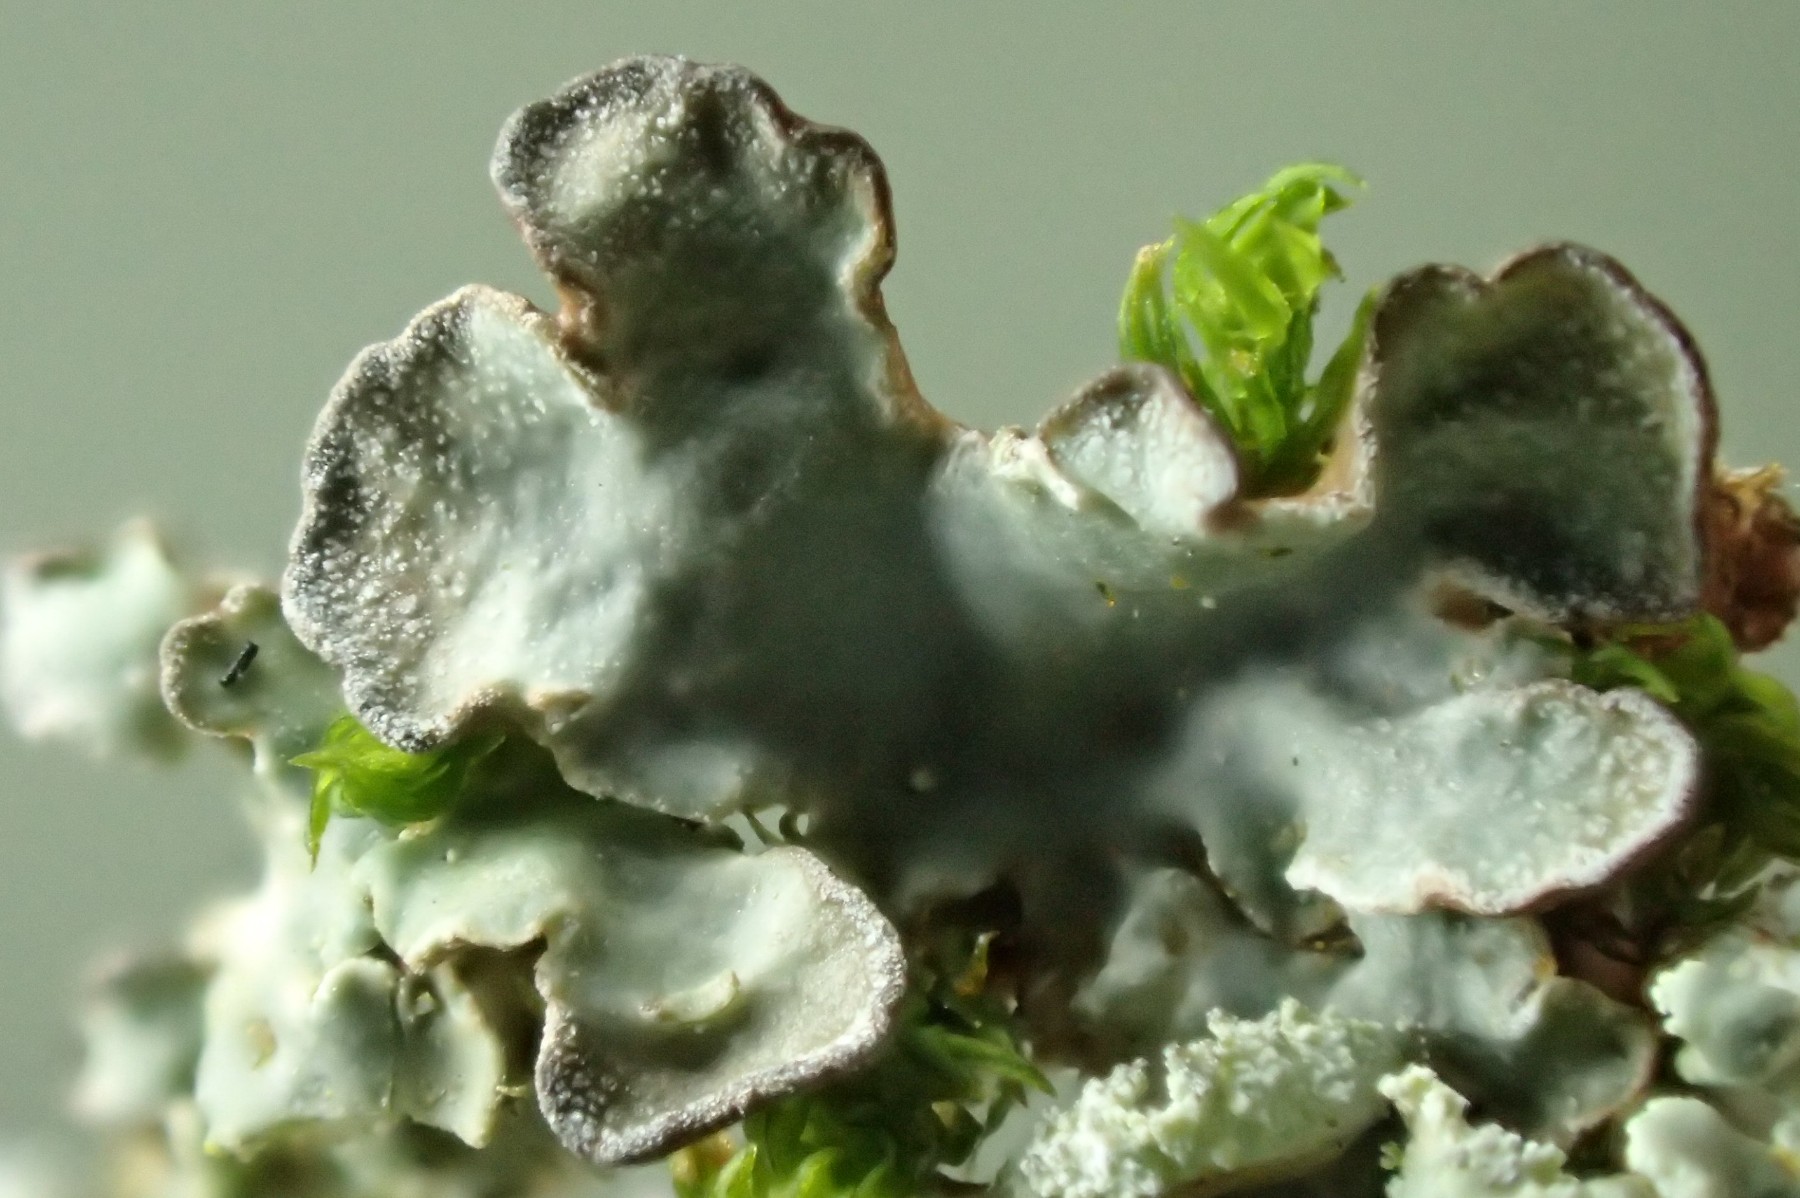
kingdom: Fungi
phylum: Ascomycota
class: Lecanoromycetes
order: Lecanorales
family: Parmeliaceae
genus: Punctelia
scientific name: Punctelia jeckeri
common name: randstøvet skållav
